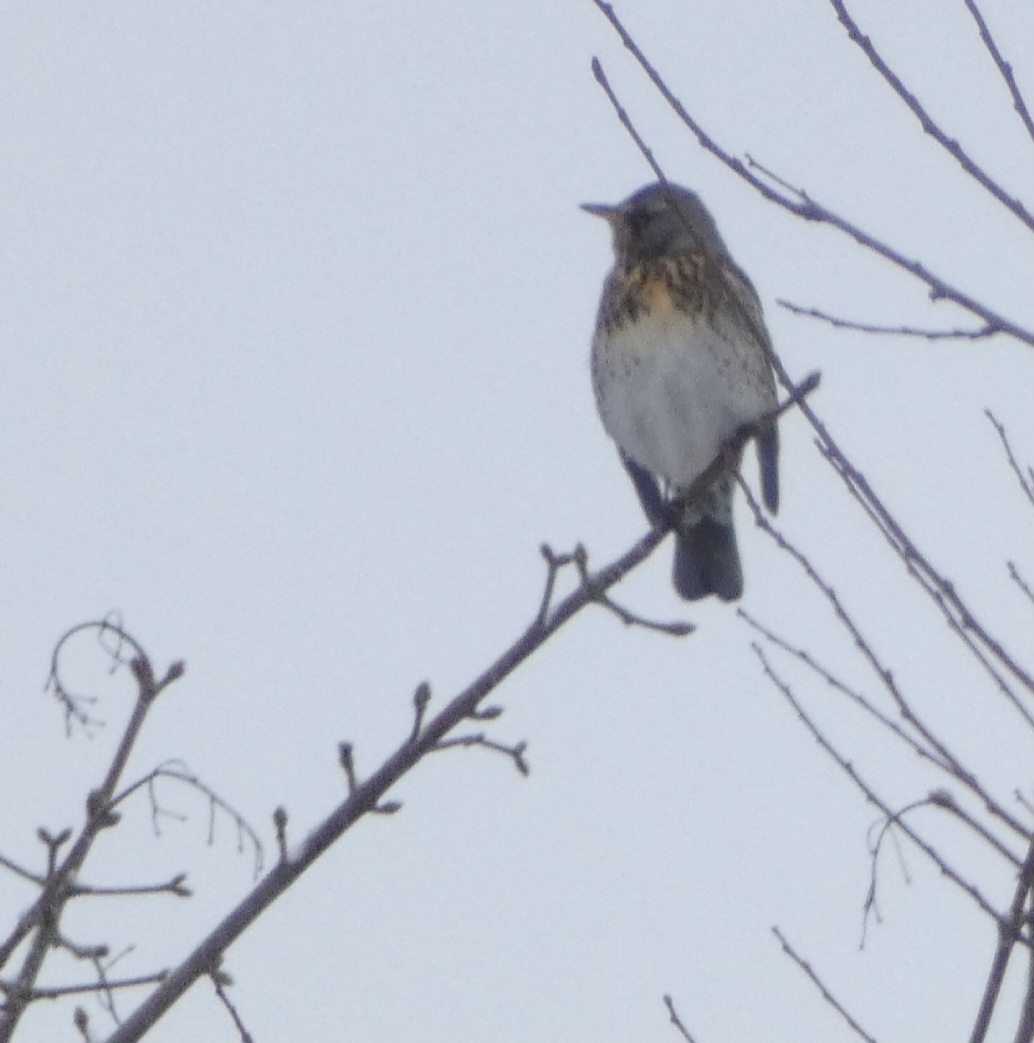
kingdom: Animalia
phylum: Chordata
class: Aves
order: Passeriformes
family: Turdidae
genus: Turdus
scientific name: Turdus pilaris
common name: Sjagger
